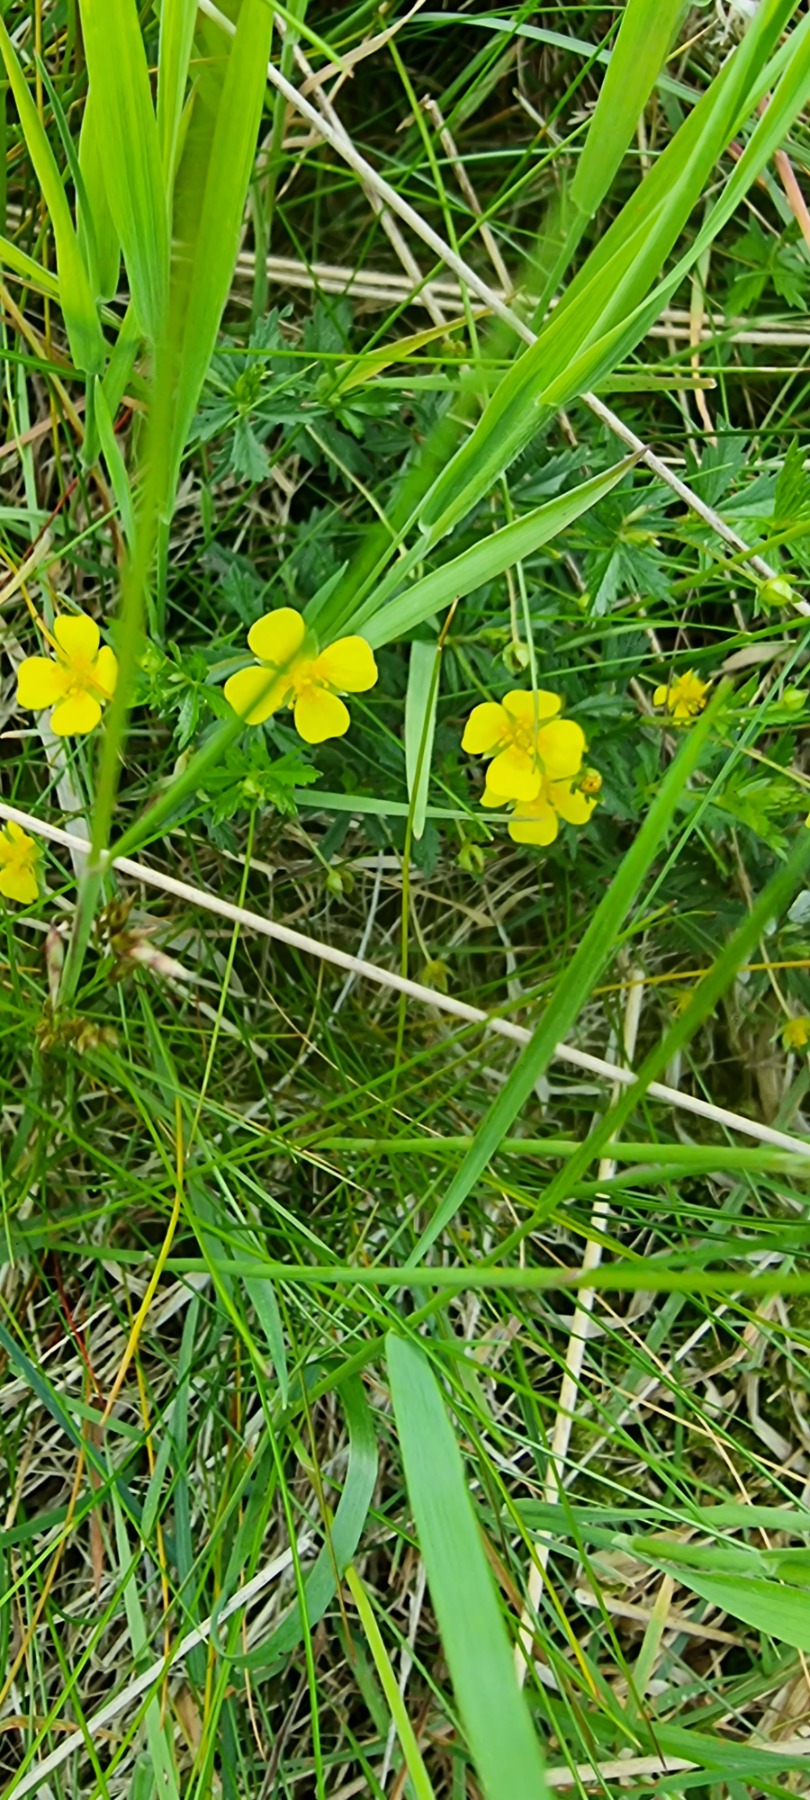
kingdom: Plantae
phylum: Tracheophyta
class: Magnoliopsida
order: Rosales
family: Rosaceae
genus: Potentilla
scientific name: Potentilla erecta
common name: Tormentil
